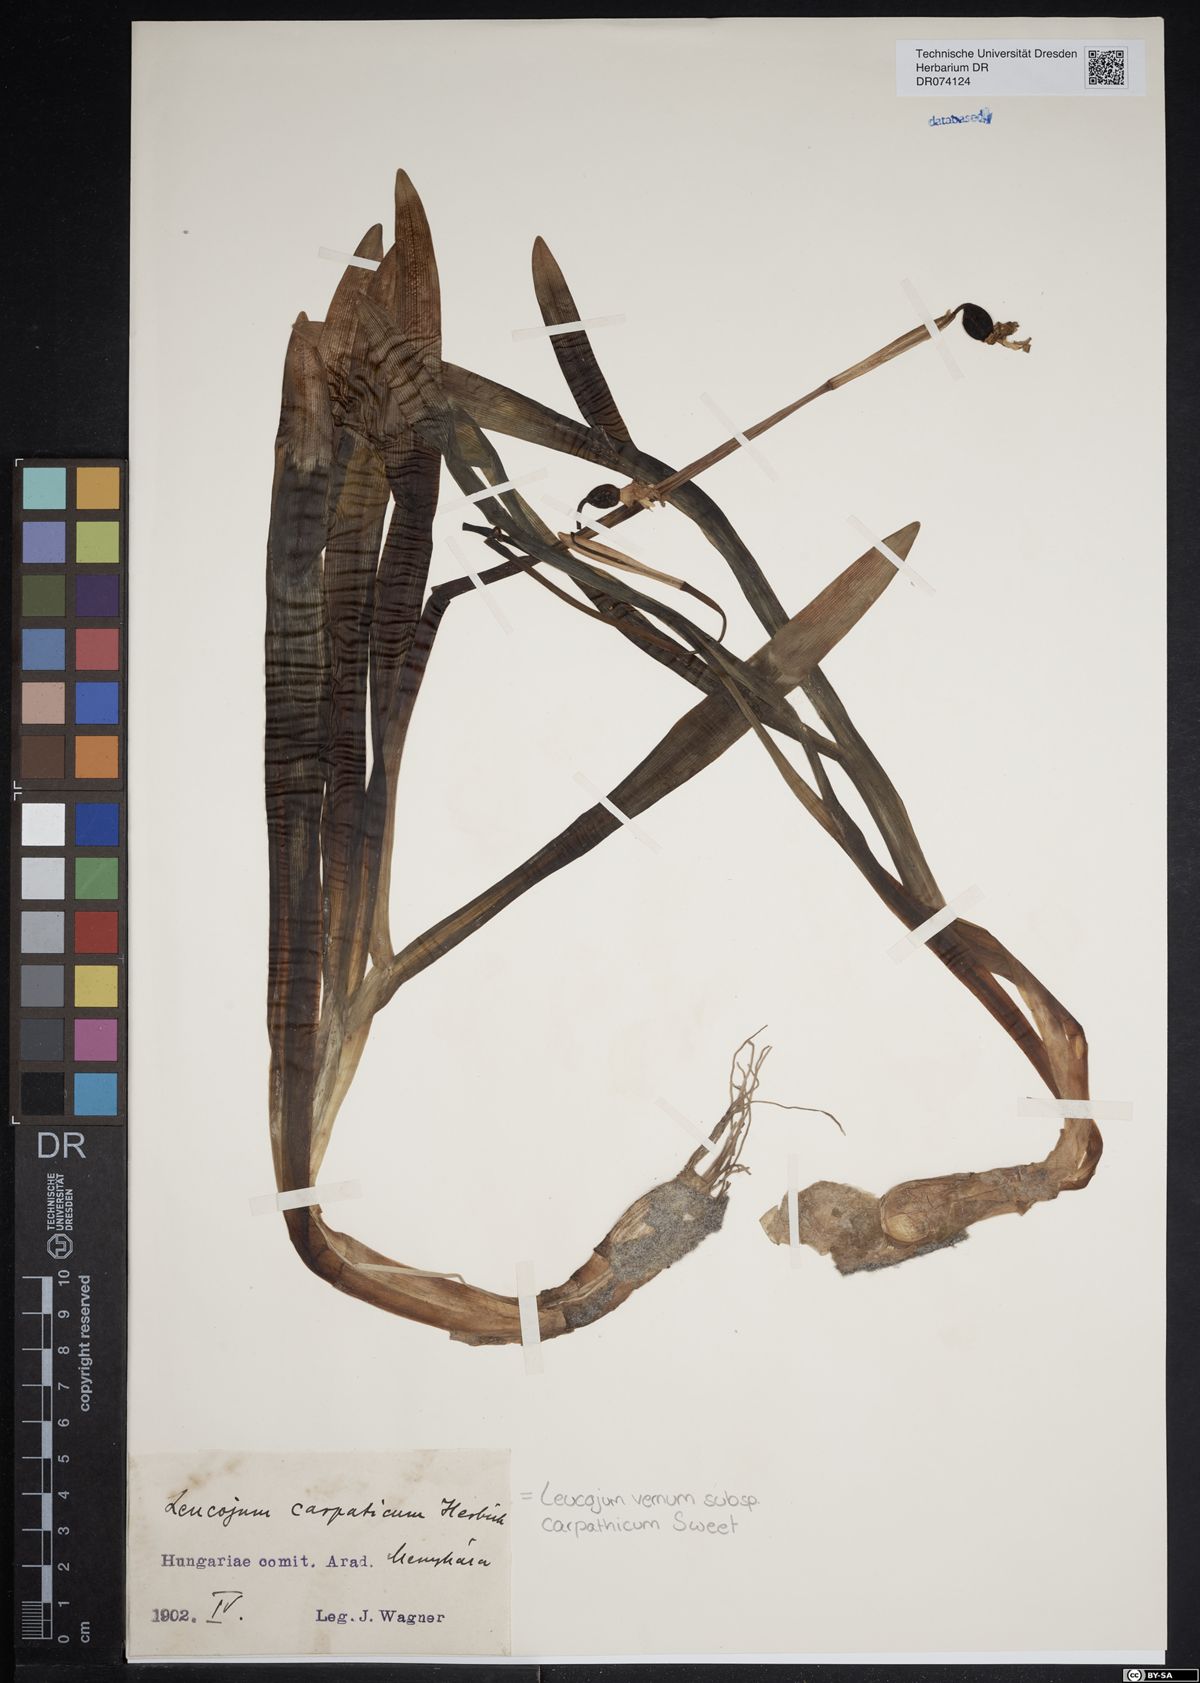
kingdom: Plantae
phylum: Tracheophyta
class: Liliopsida
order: Asparagales
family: Amaryllidaceae
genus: Leucojum
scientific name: Leucojum vernum
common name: Spring snowflake
